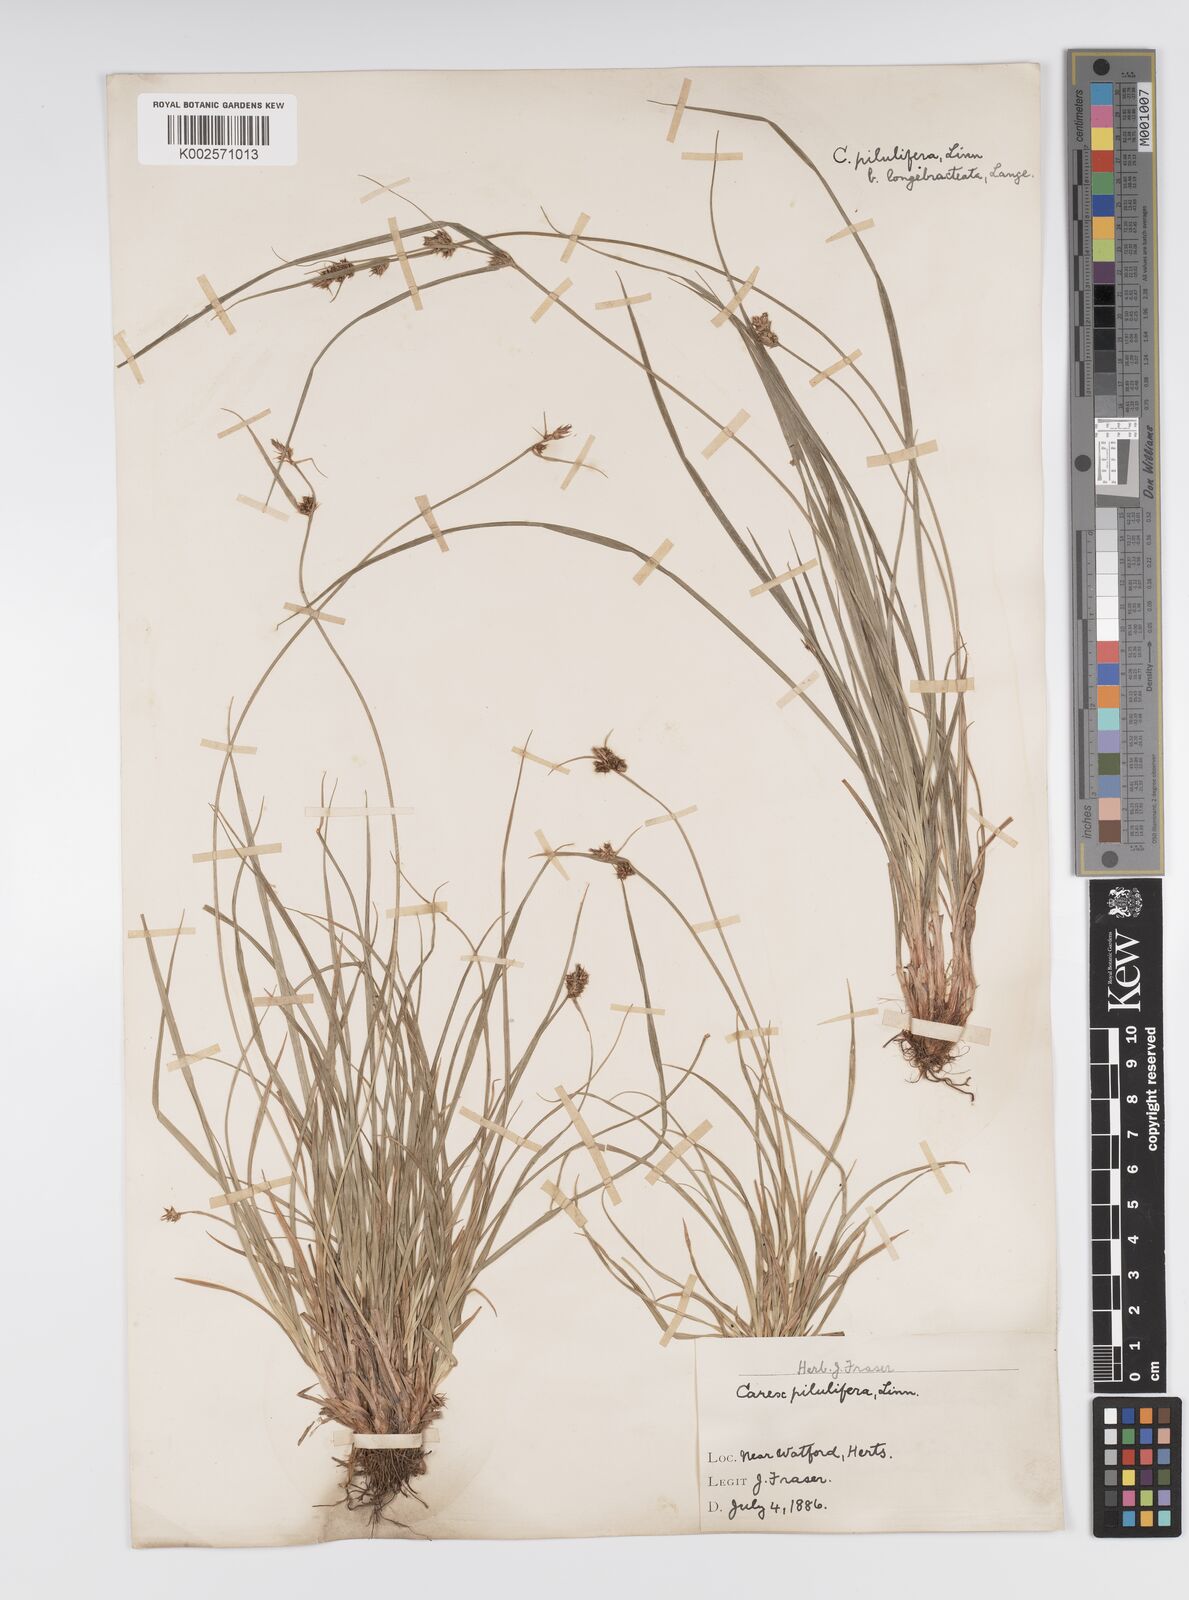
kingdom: Plantae
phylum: Tracheophyta
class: Liliopsida
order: Poales
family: Cyperaceae
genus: Carex
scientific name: Carex praecox
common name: Early sedge
